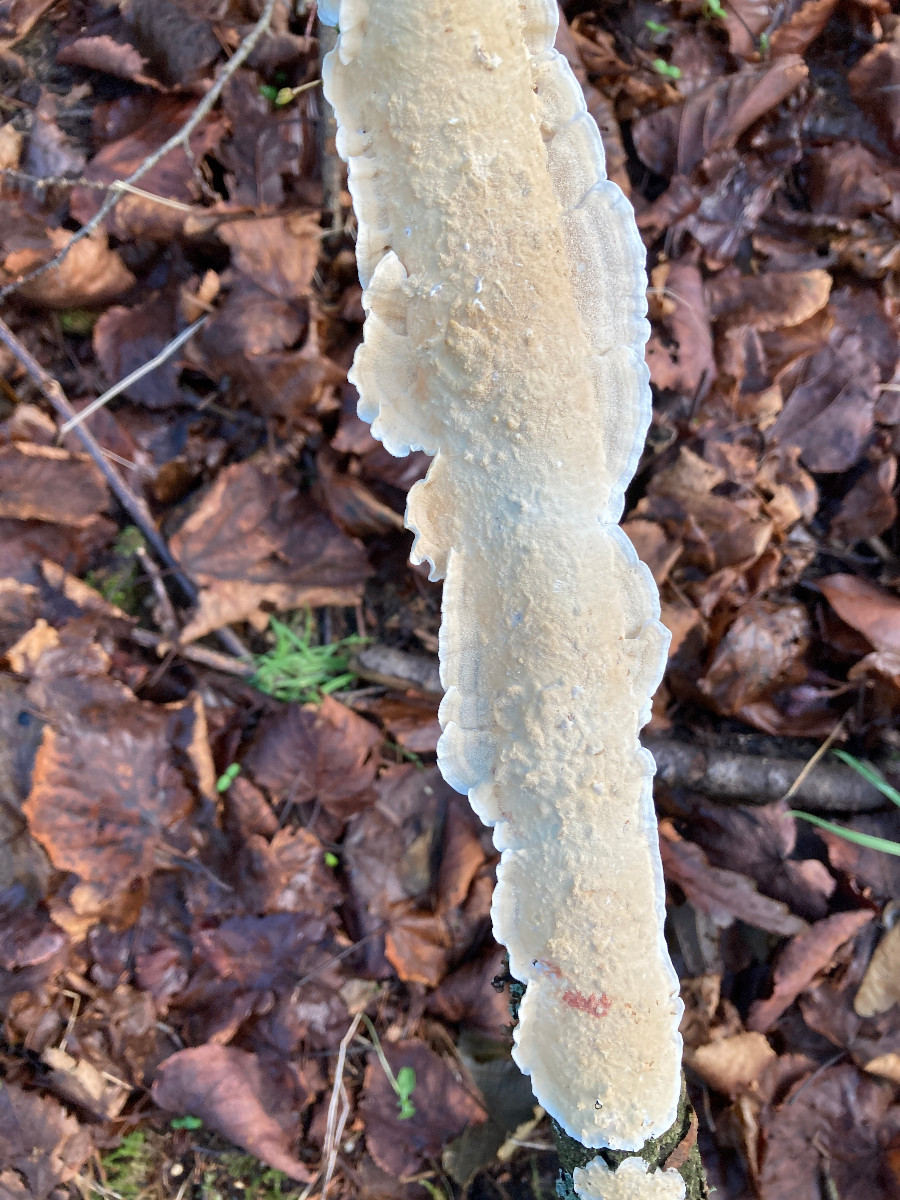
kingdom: Fungi
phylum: Basidiomycota
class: Agaricomycetes
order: Polyporales
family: Irpicaceae
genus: Byssomerulius
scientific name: Byssomerulius corium
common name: læder-åresvamp
